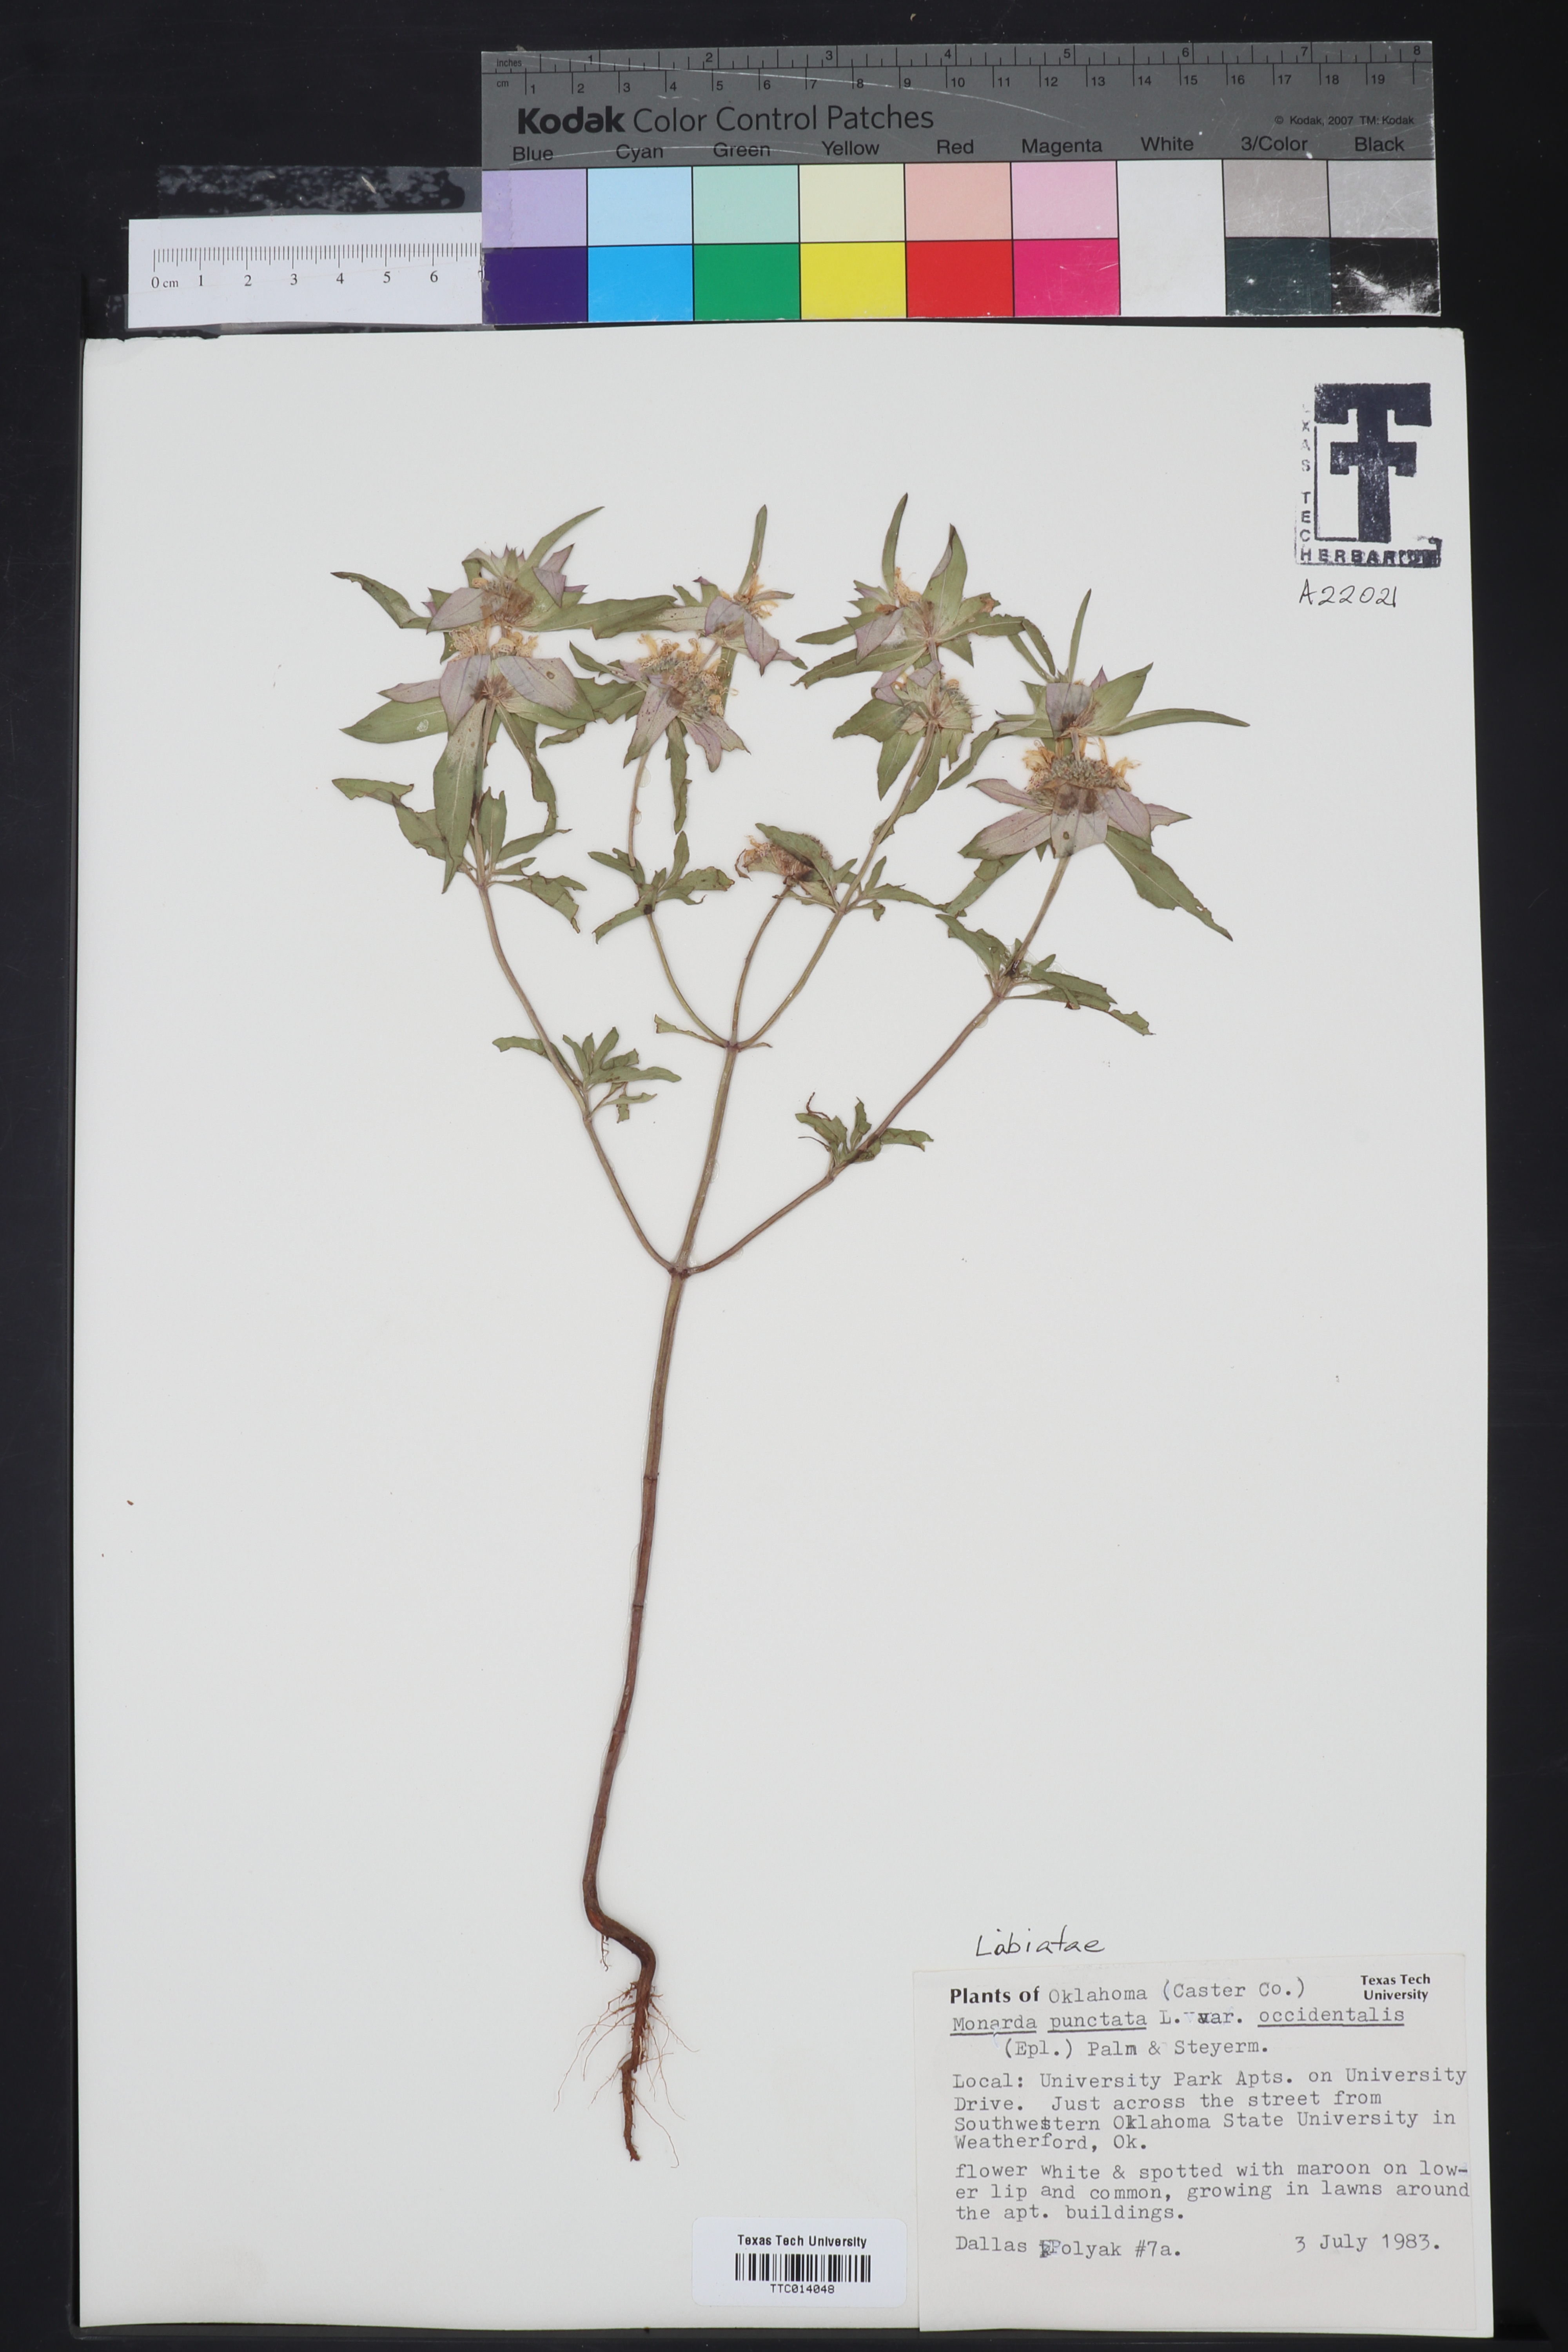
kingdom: Plantae
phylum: Tracheophyta
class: Magnoliopsida
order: Lamiales
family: Lamiaceae
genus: Monarda
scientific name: Monarda punctata
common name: Dotted monarda
